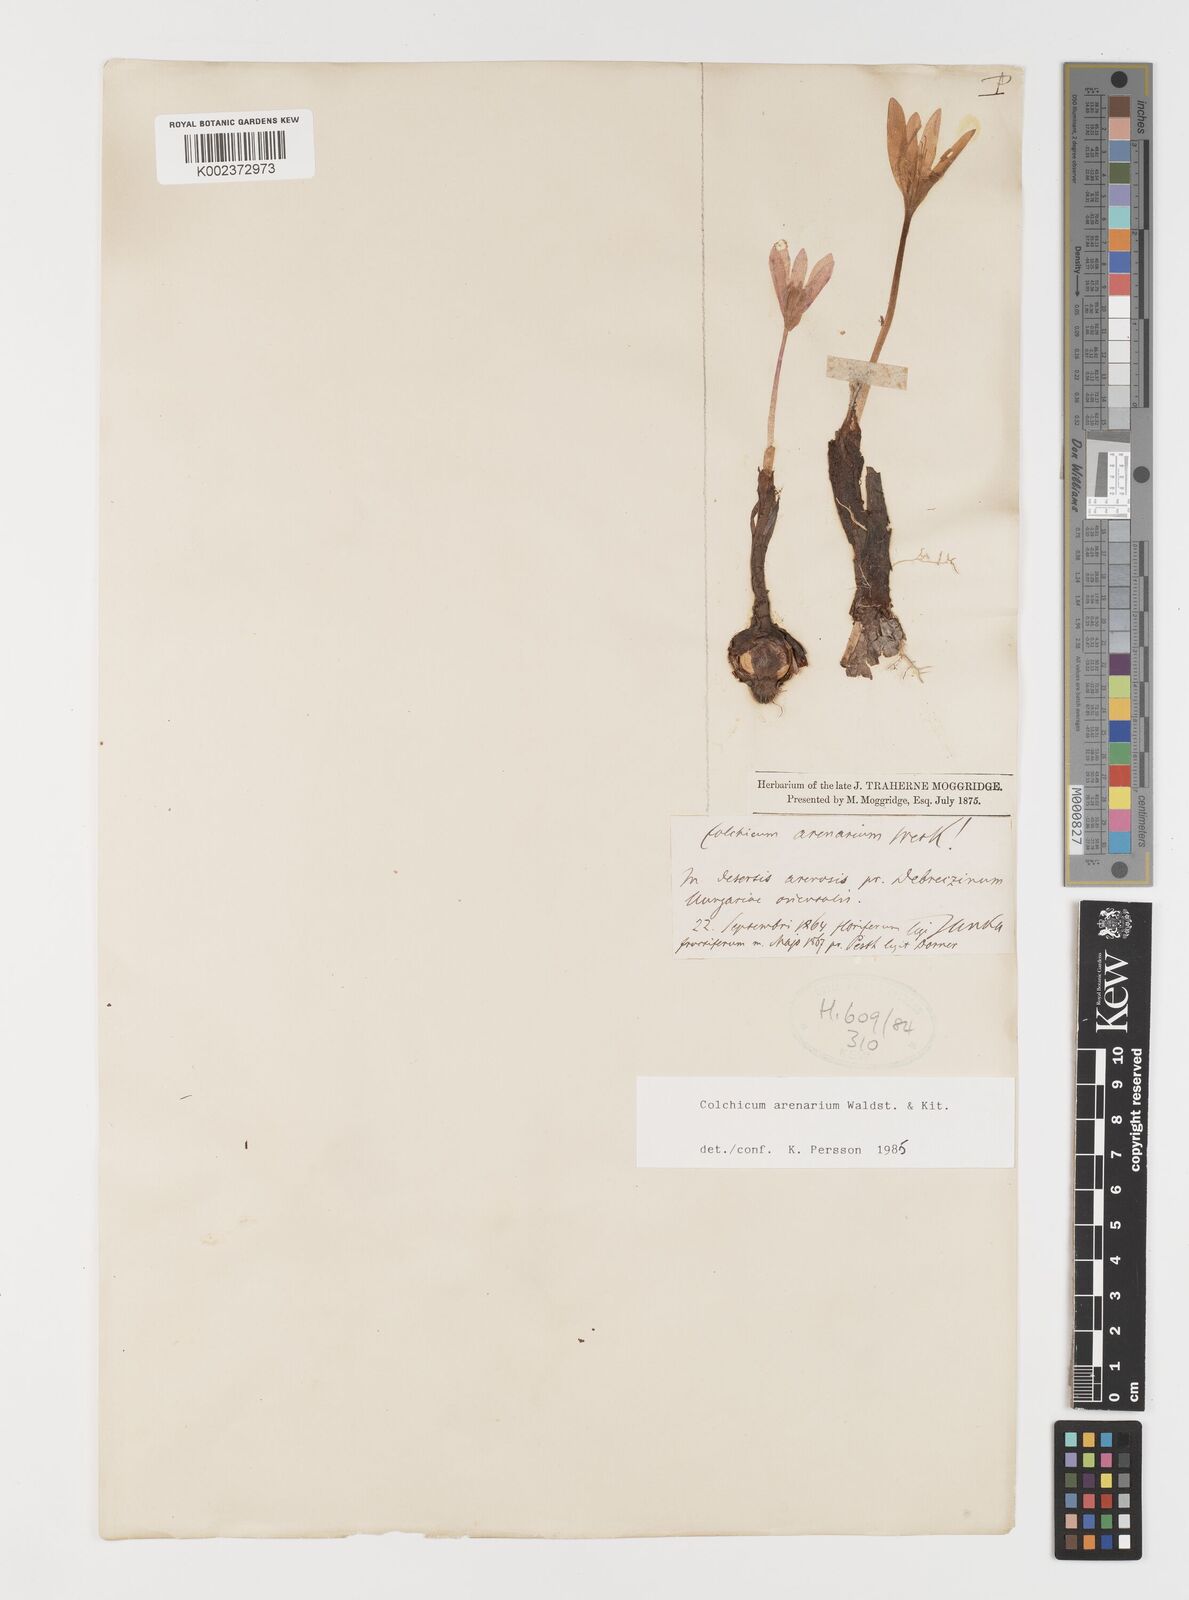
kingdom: Plantae
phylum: Tracheophyta
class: Liliopsida
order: Liliales
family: Colchicaceae
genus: Colchicum
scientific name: Colchicum arenarium
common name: Sand saffron
